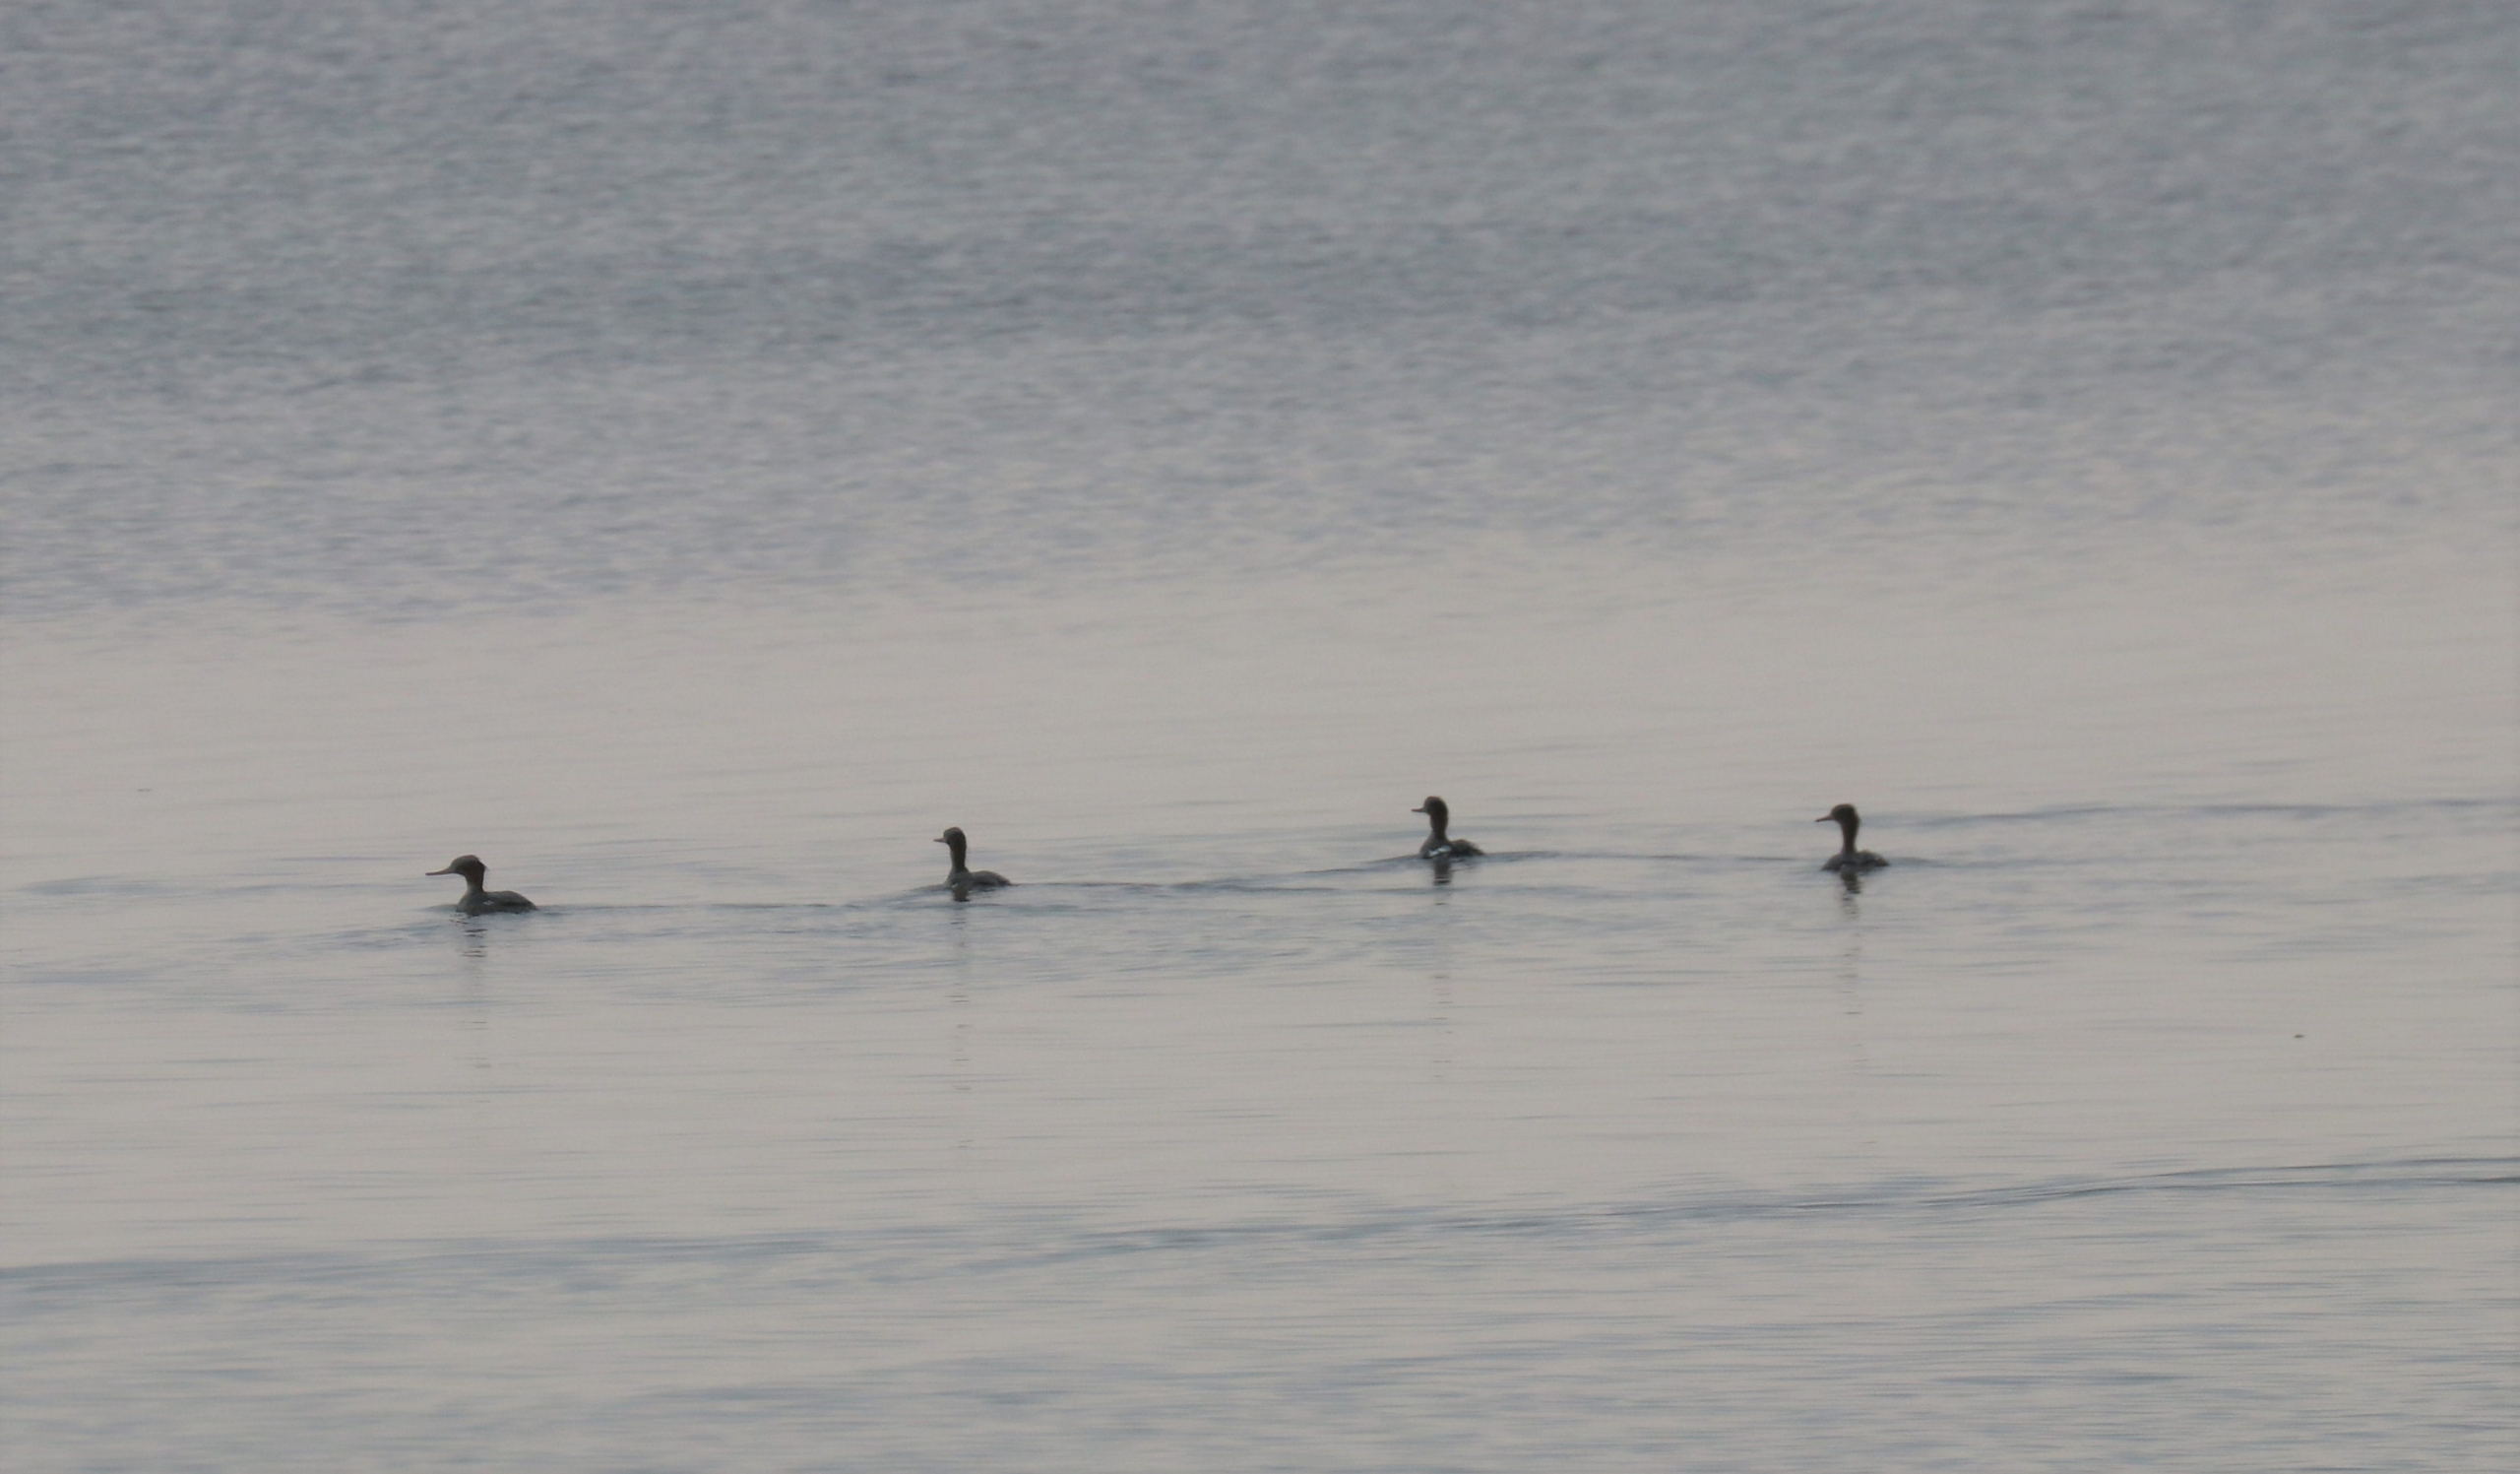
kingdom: Animalia
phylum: Chordata
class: Aves
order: Anseriformes
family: Anatidae
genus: Mergus
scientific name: Mergus serrator
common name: Toppet skallesluger
